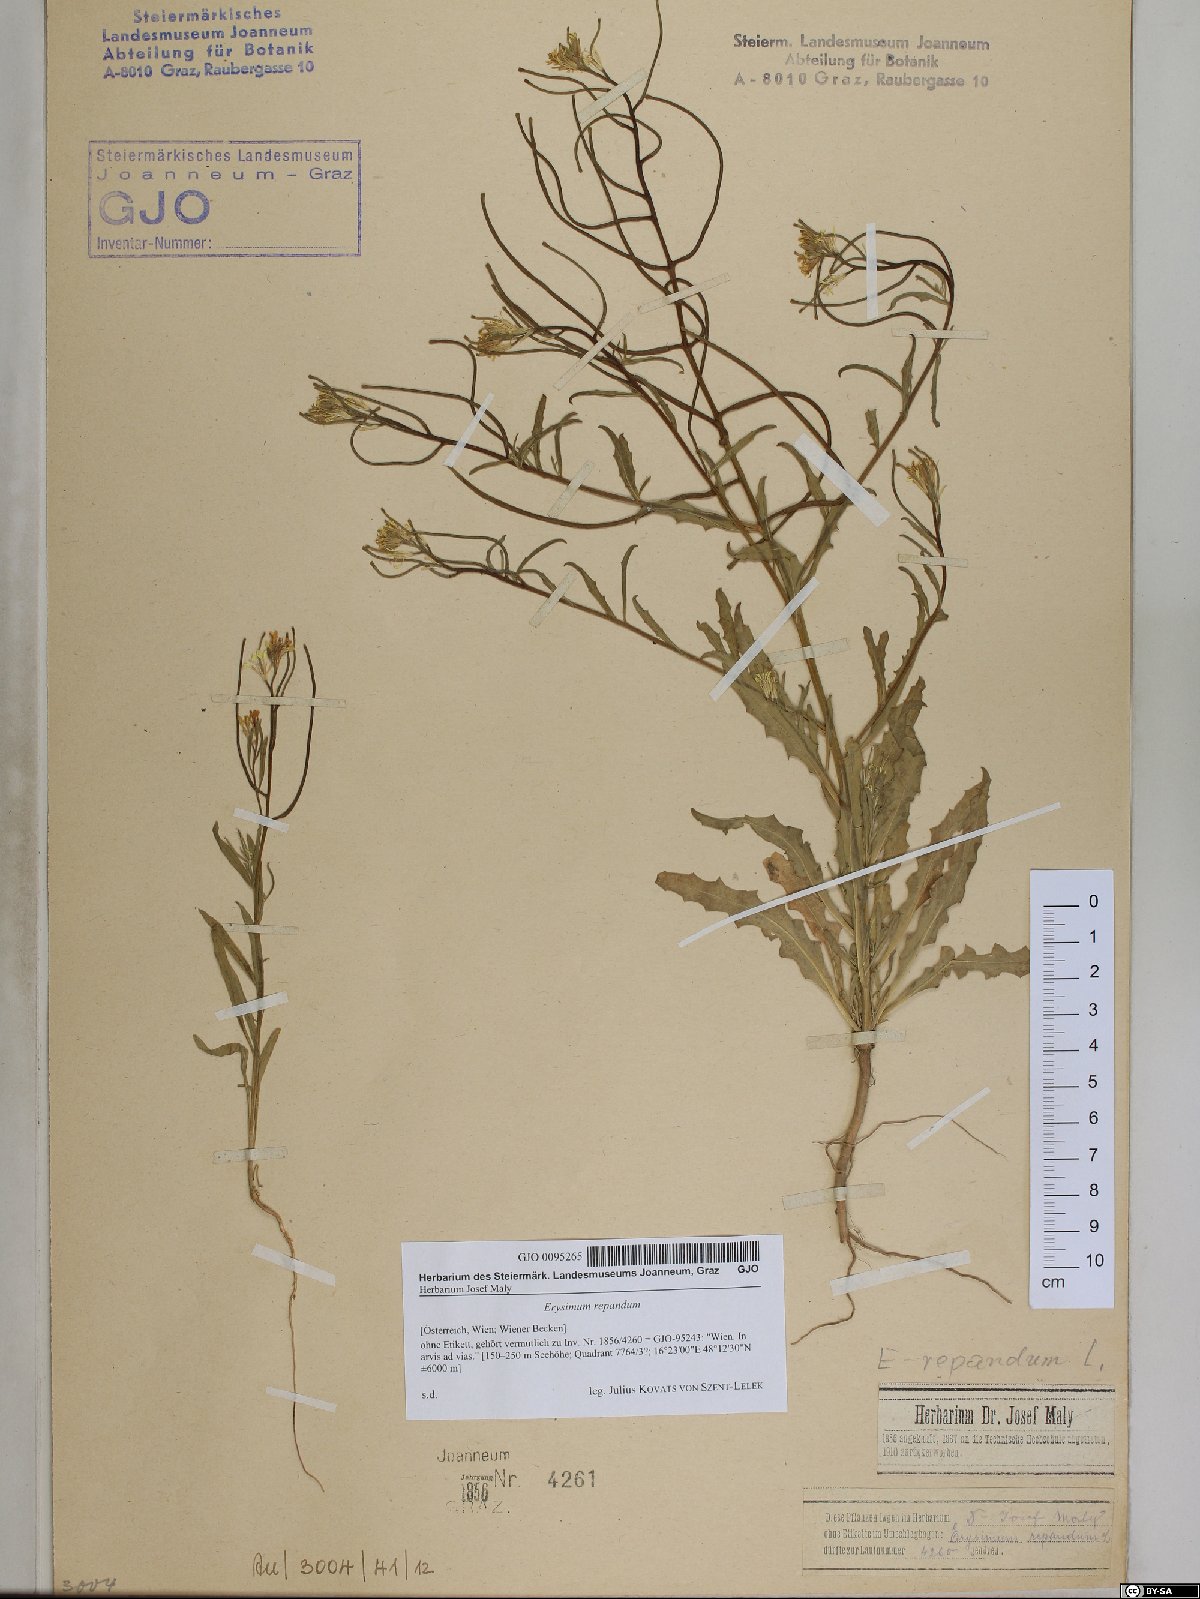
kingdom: Plantae
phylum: Tracheophyta
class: Magnoliopsida
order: Brassicales
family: Brassicaceae
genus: Erysimum
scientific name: Erysimum repandum
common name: Spreading wallflower
